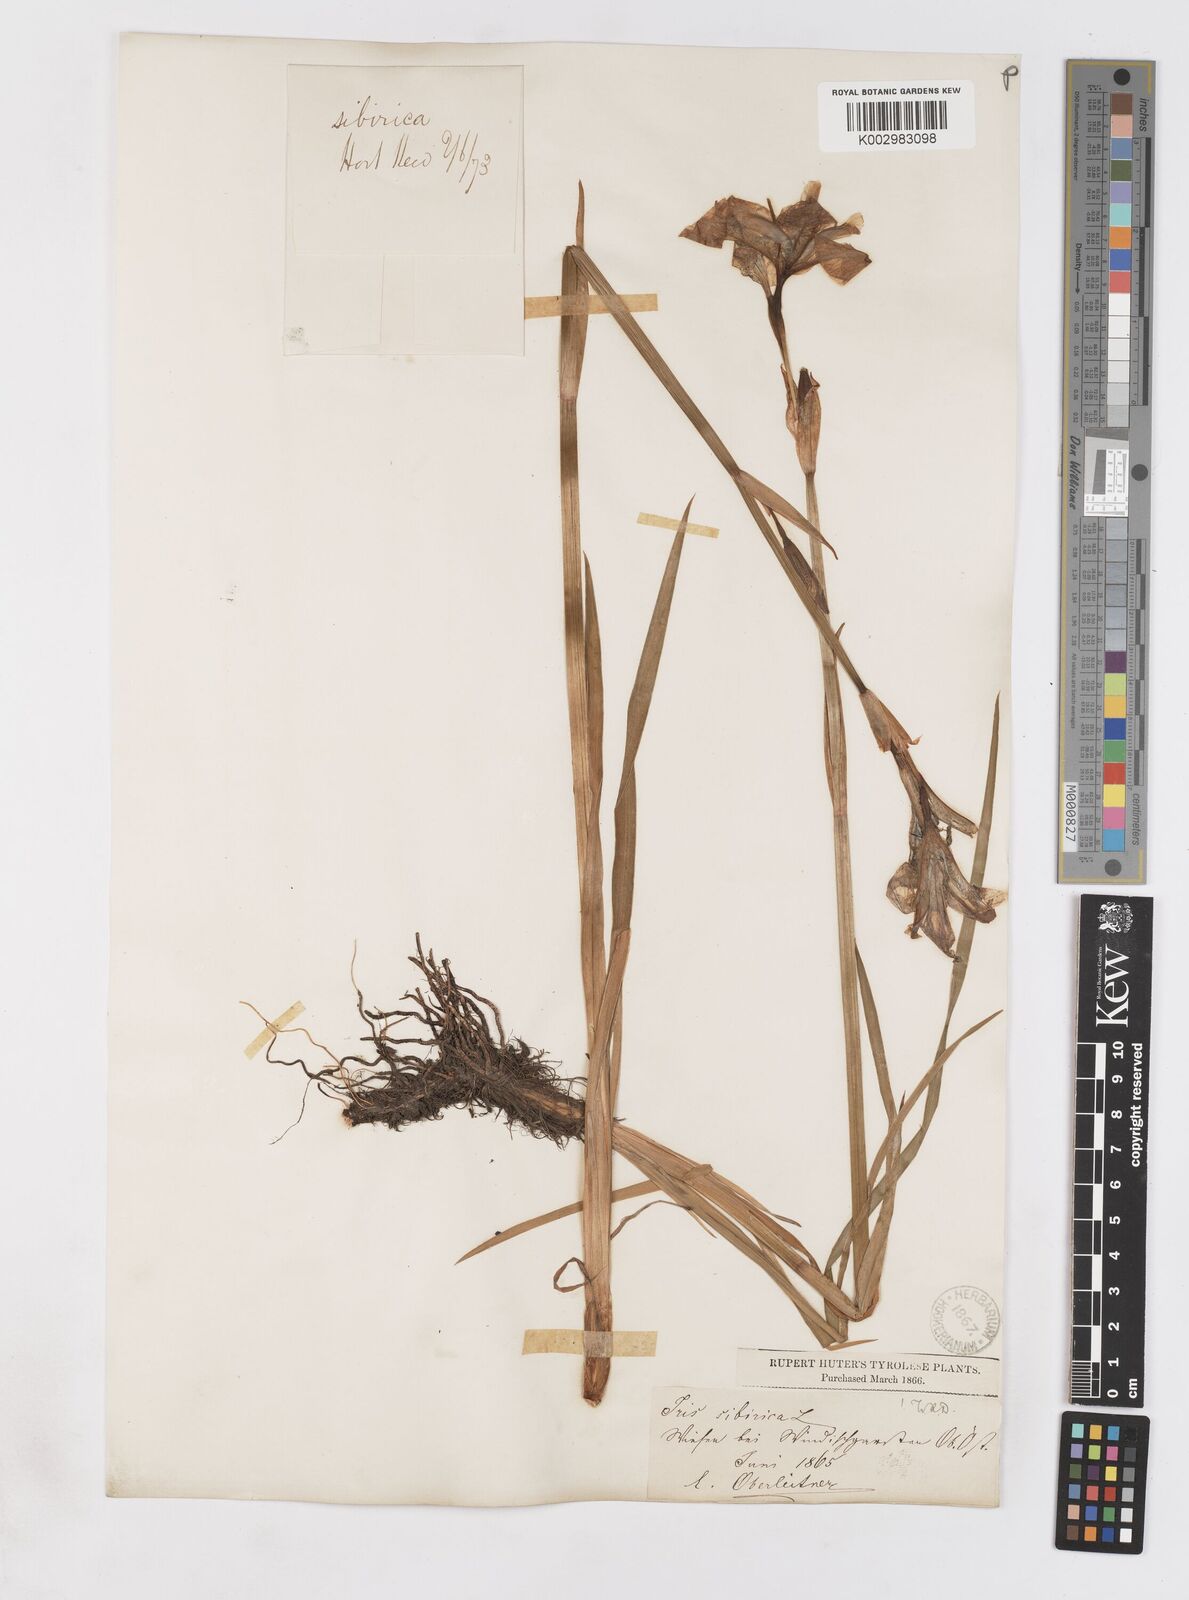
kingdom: Plantae
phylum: Tracheophyta
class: Liliopsida
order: Asparagales
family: Iridaceae
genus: Iris
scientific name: Iris sibirica
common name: Siberian iris
